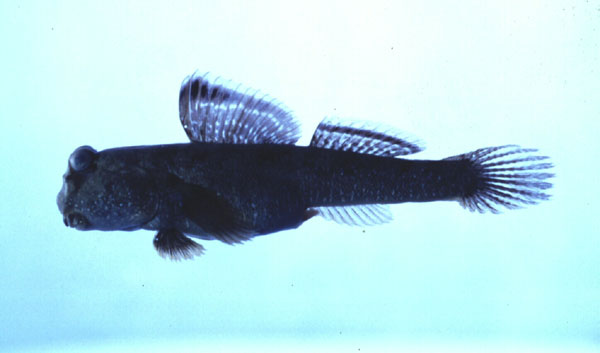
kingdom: Animalia
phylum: Chordata
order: Perciformes
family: Gobiidae
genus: Periophthalmus
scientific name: Periophthalmus argentilineatus
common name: Barred mudskipper
